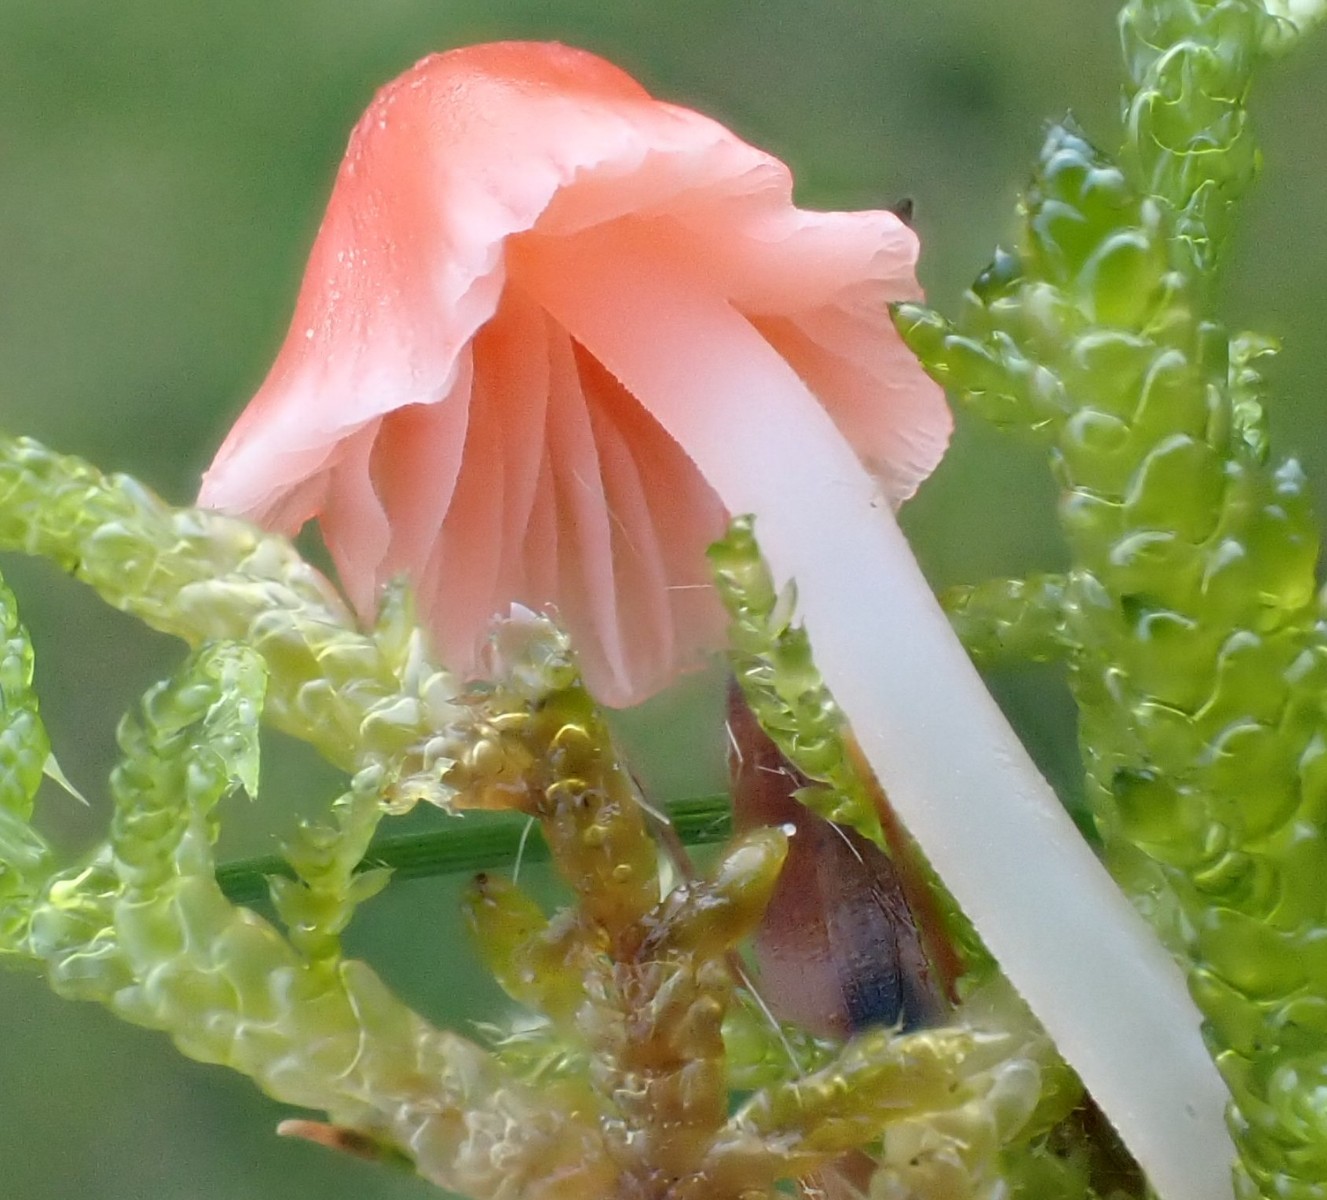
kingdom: Fungi
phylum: Basidiomycota
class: Agaricomycetes
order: Agaricales
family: Mycenaceae
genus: Atheniella
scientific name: Atheniella adonis
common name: rønnerød huesvamp
